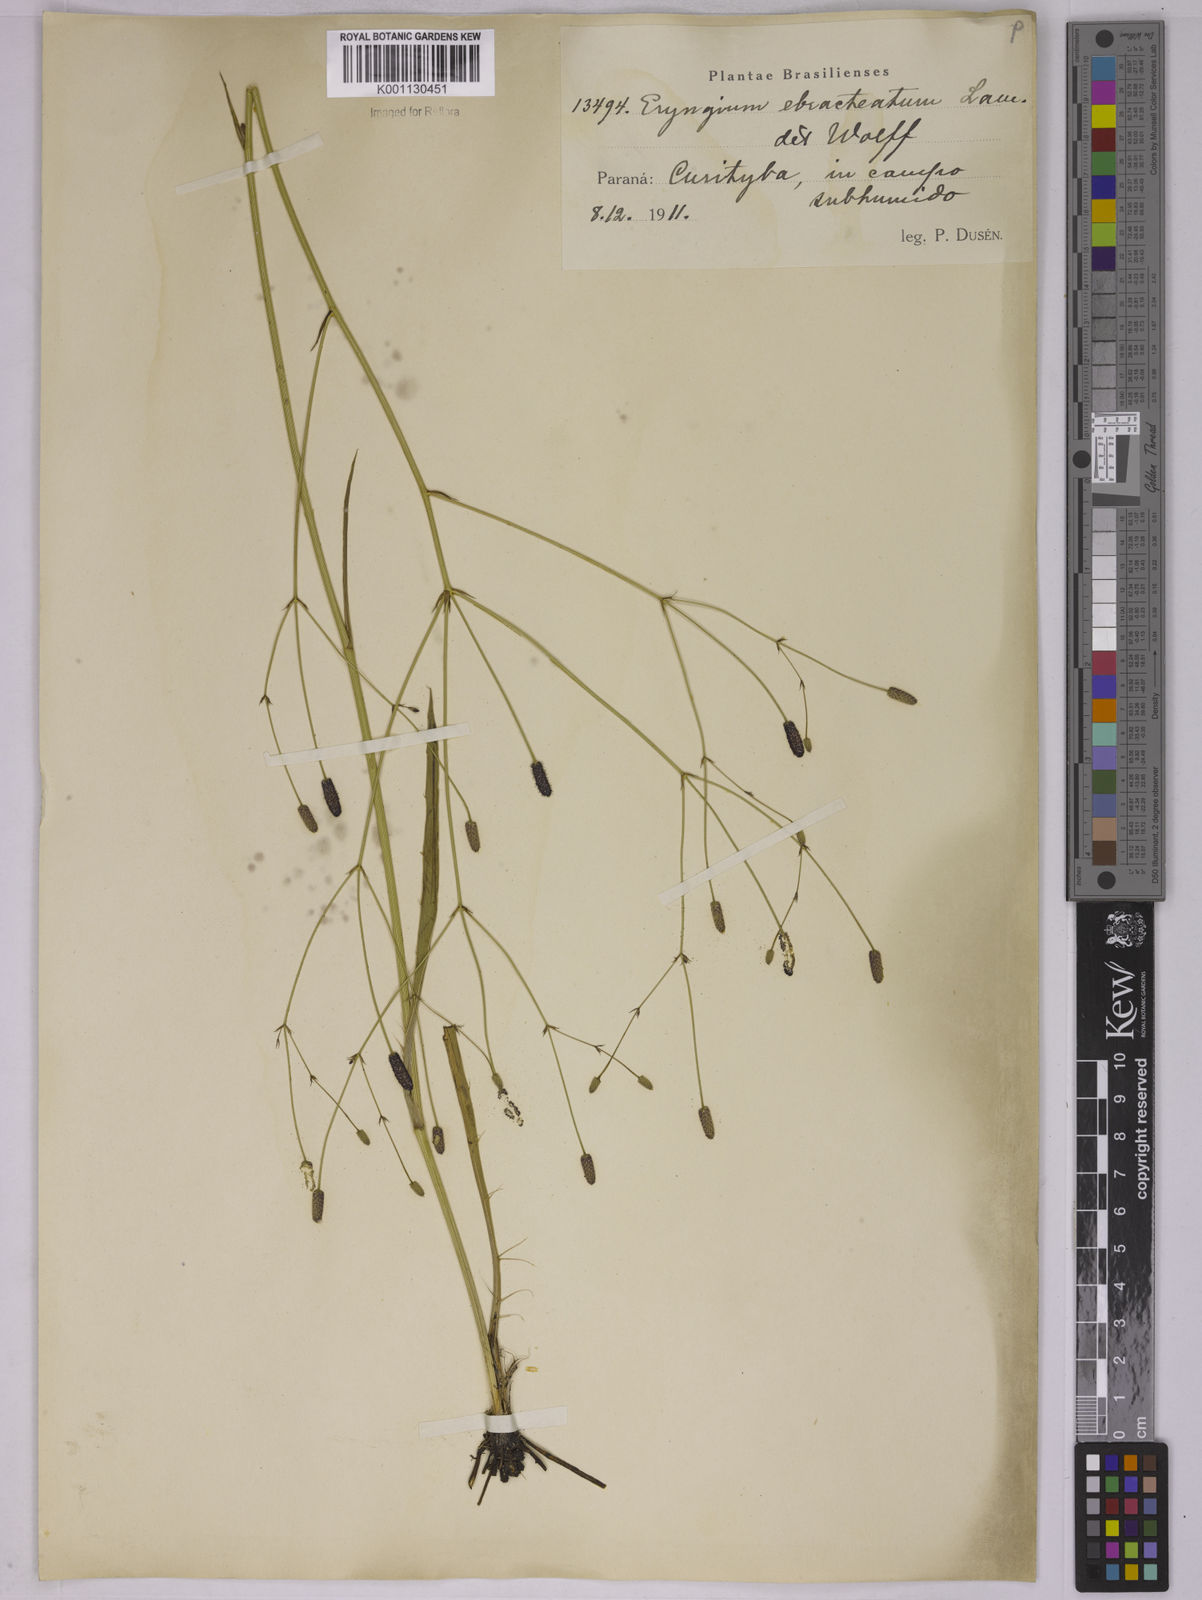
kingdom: Plantae
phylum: Tracheophyta
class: Magnoliopsida
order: Apiales
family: Apiaceae
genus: Eryngium
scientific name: Eryngium ebracteatum
